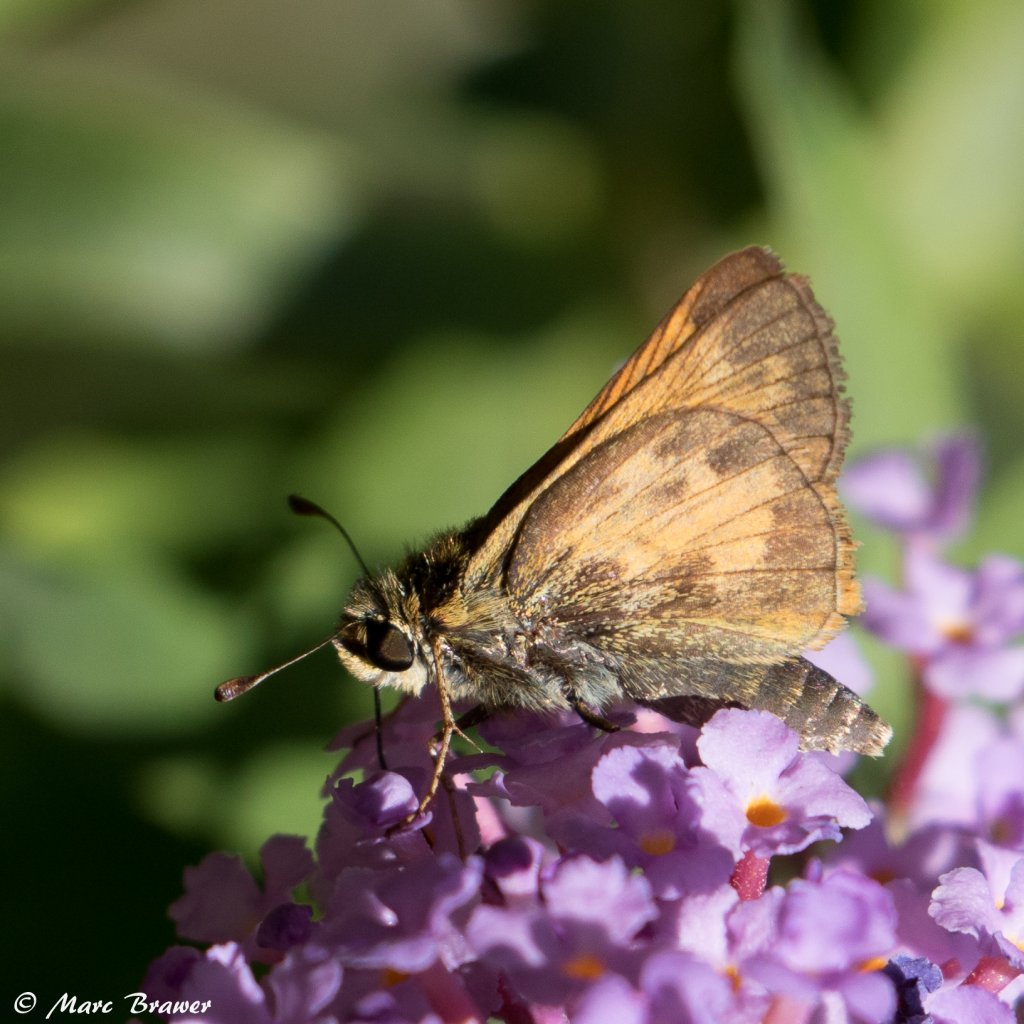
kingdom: Animalia
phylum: Arthropoda
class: Insecta
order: Lepidoptera
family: Hesperiidae
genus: Polites
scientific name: Polites coras
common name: Peck's Skipper
